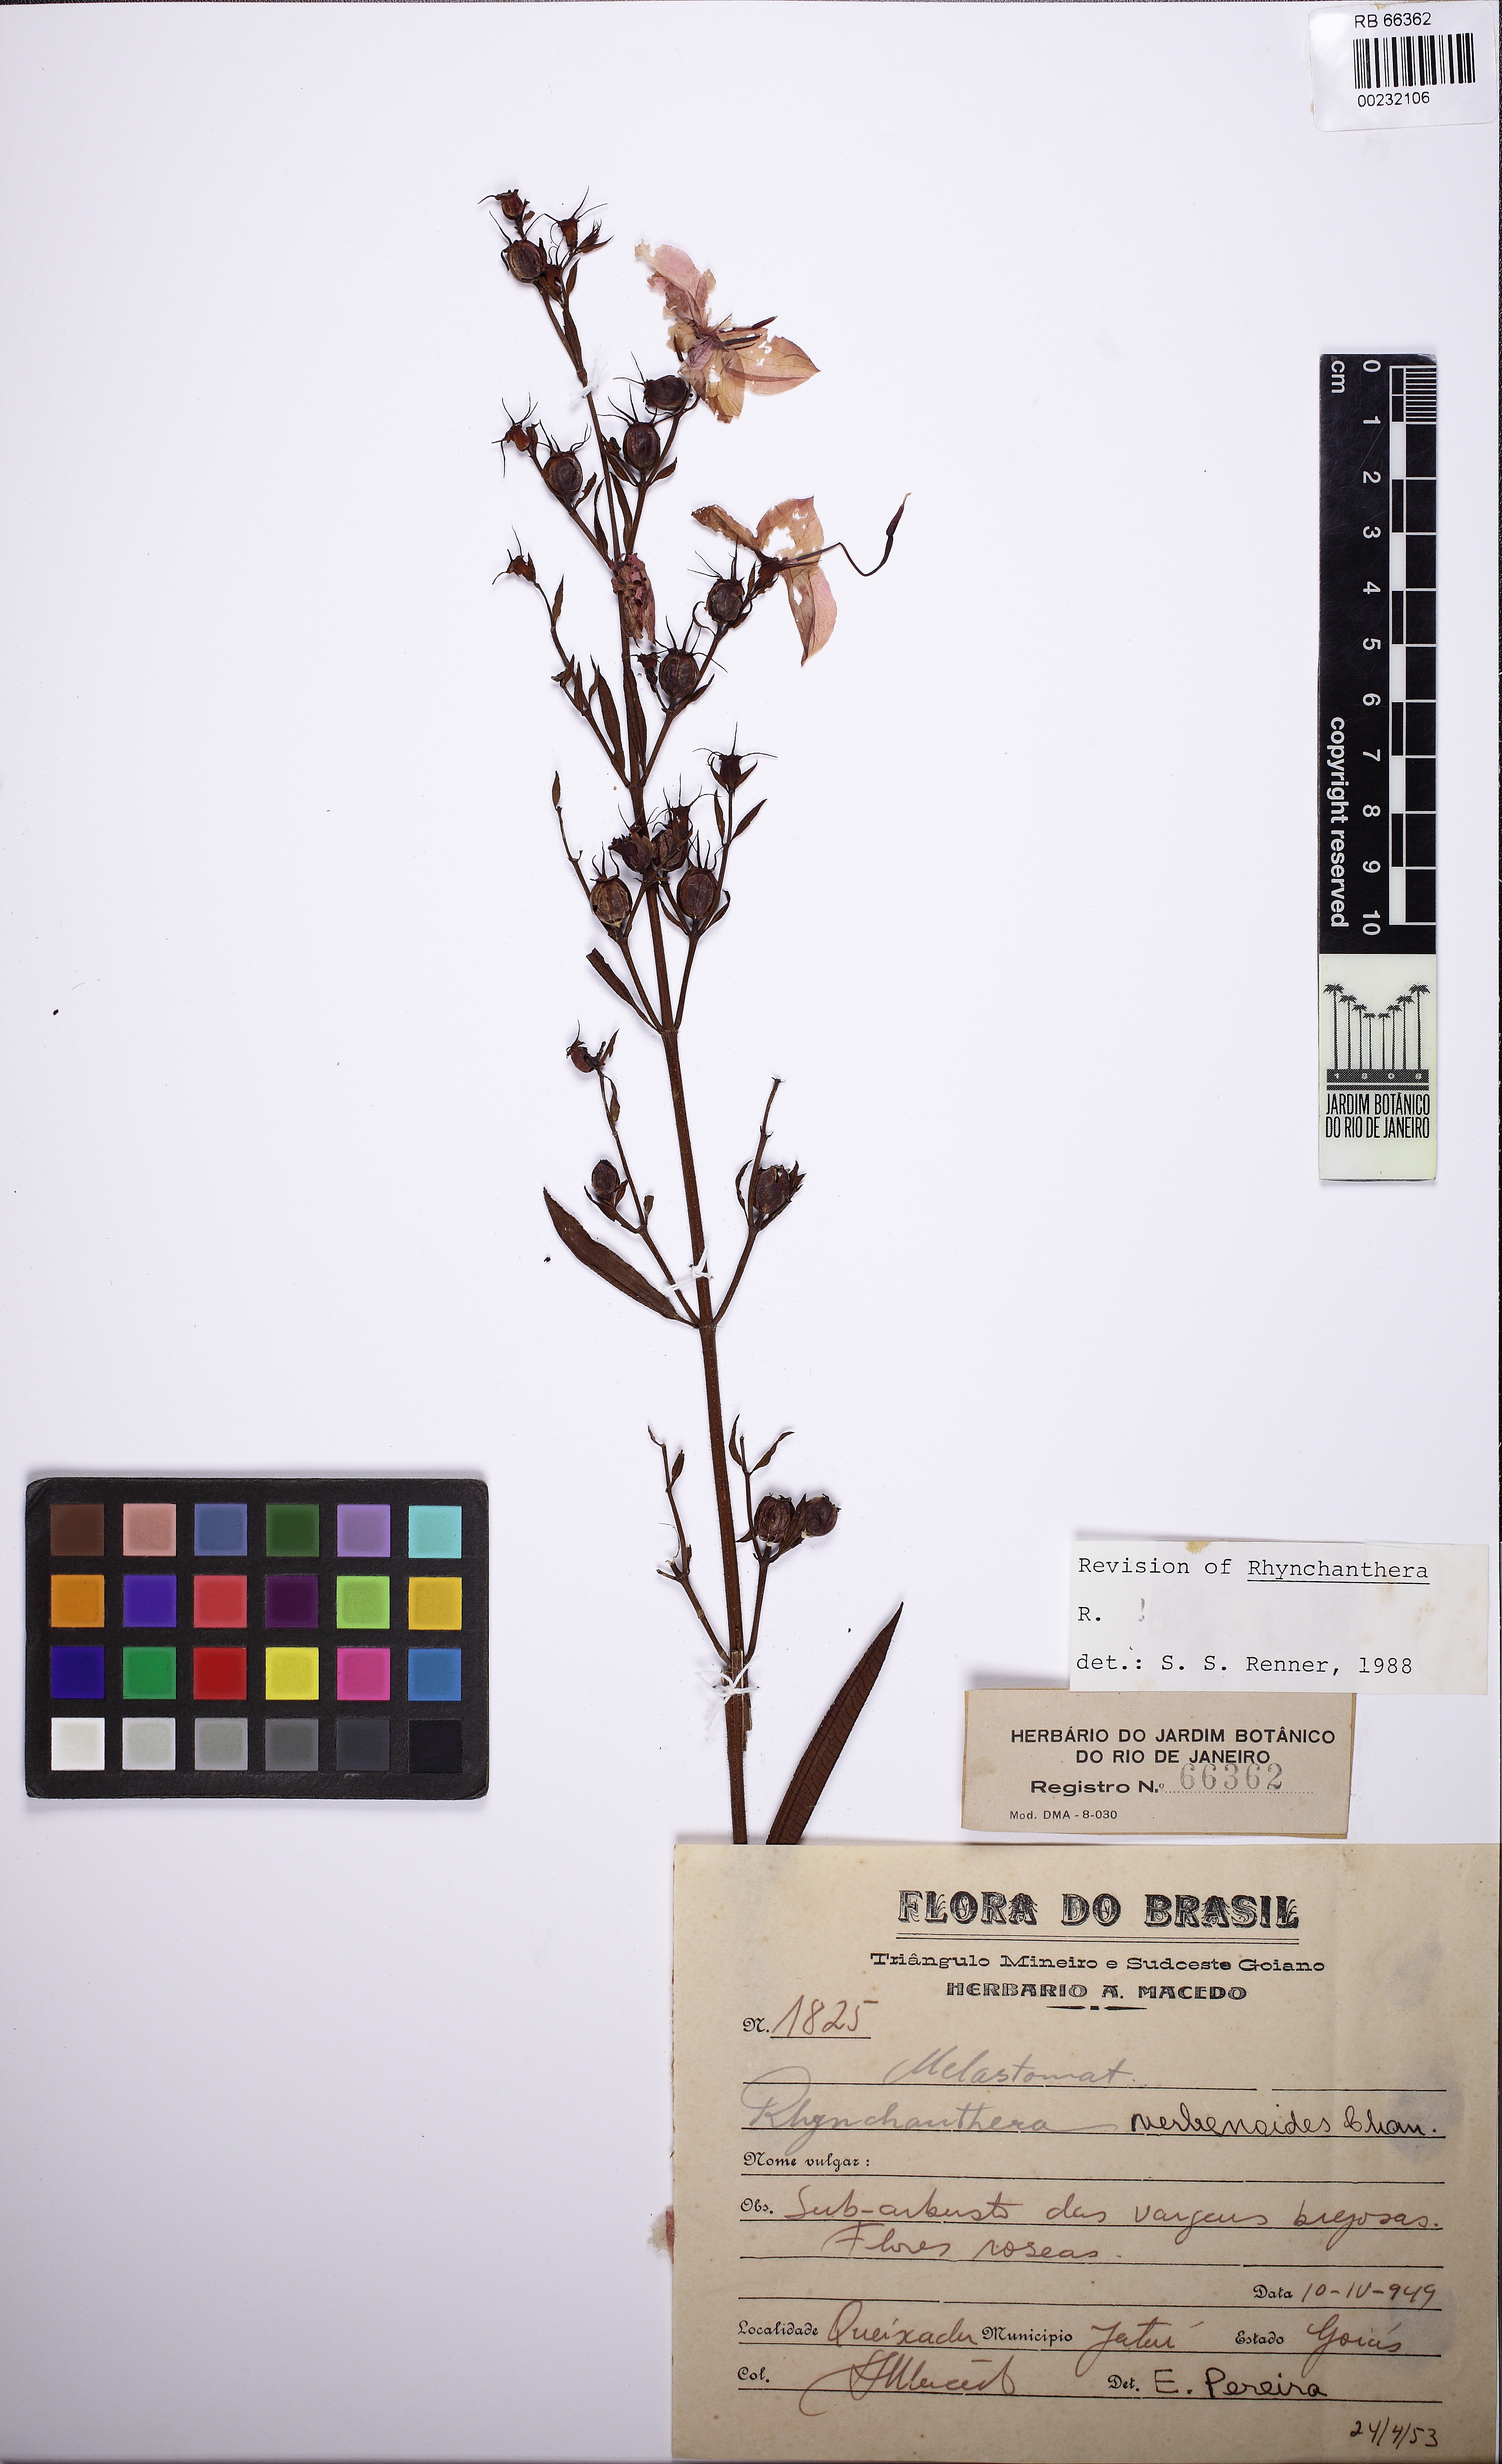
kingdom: Plantae
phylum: Tracheophyta
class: Magnoliopsida
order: Myrtales
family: Melastomataceae
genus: Rhynchanthera
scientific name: Rhynchanthera verbenoides
